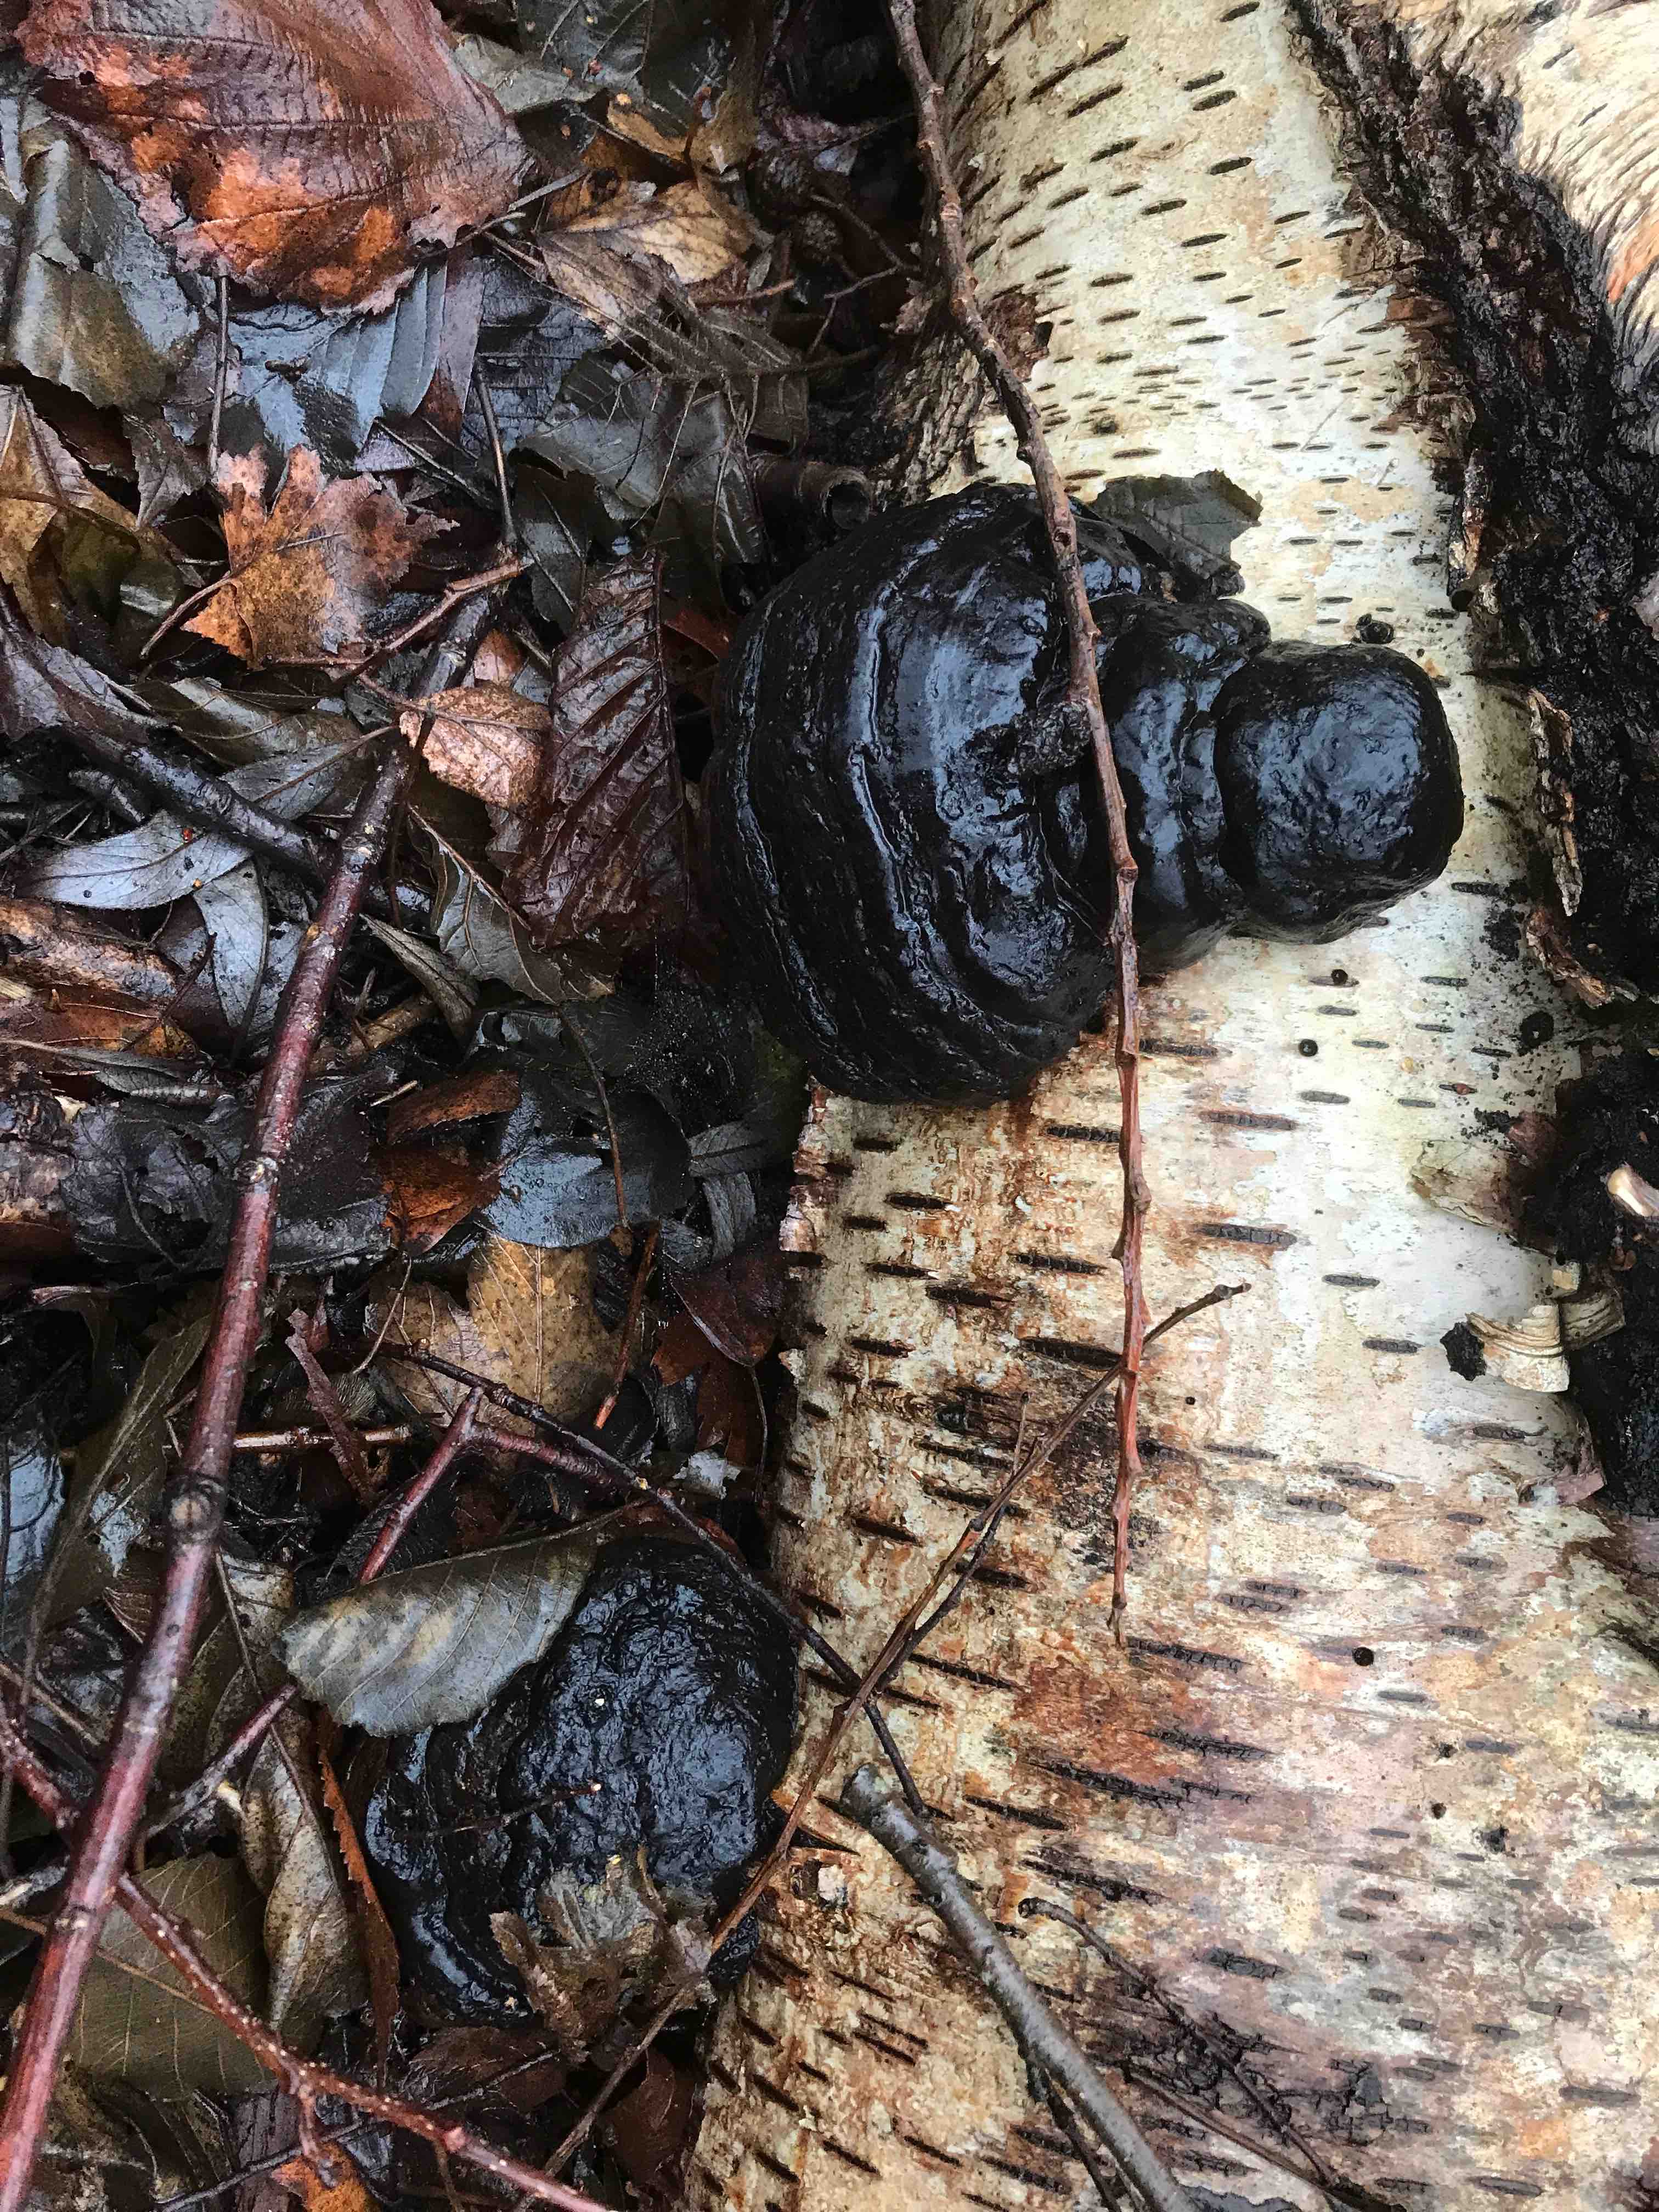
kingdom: Fungi
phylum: Basidiomycota
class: Agaricomycetes
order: Polyporales
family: Polyporaceae
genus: Fomes
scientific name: Fomes fomentarius
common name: tøndersvamp
